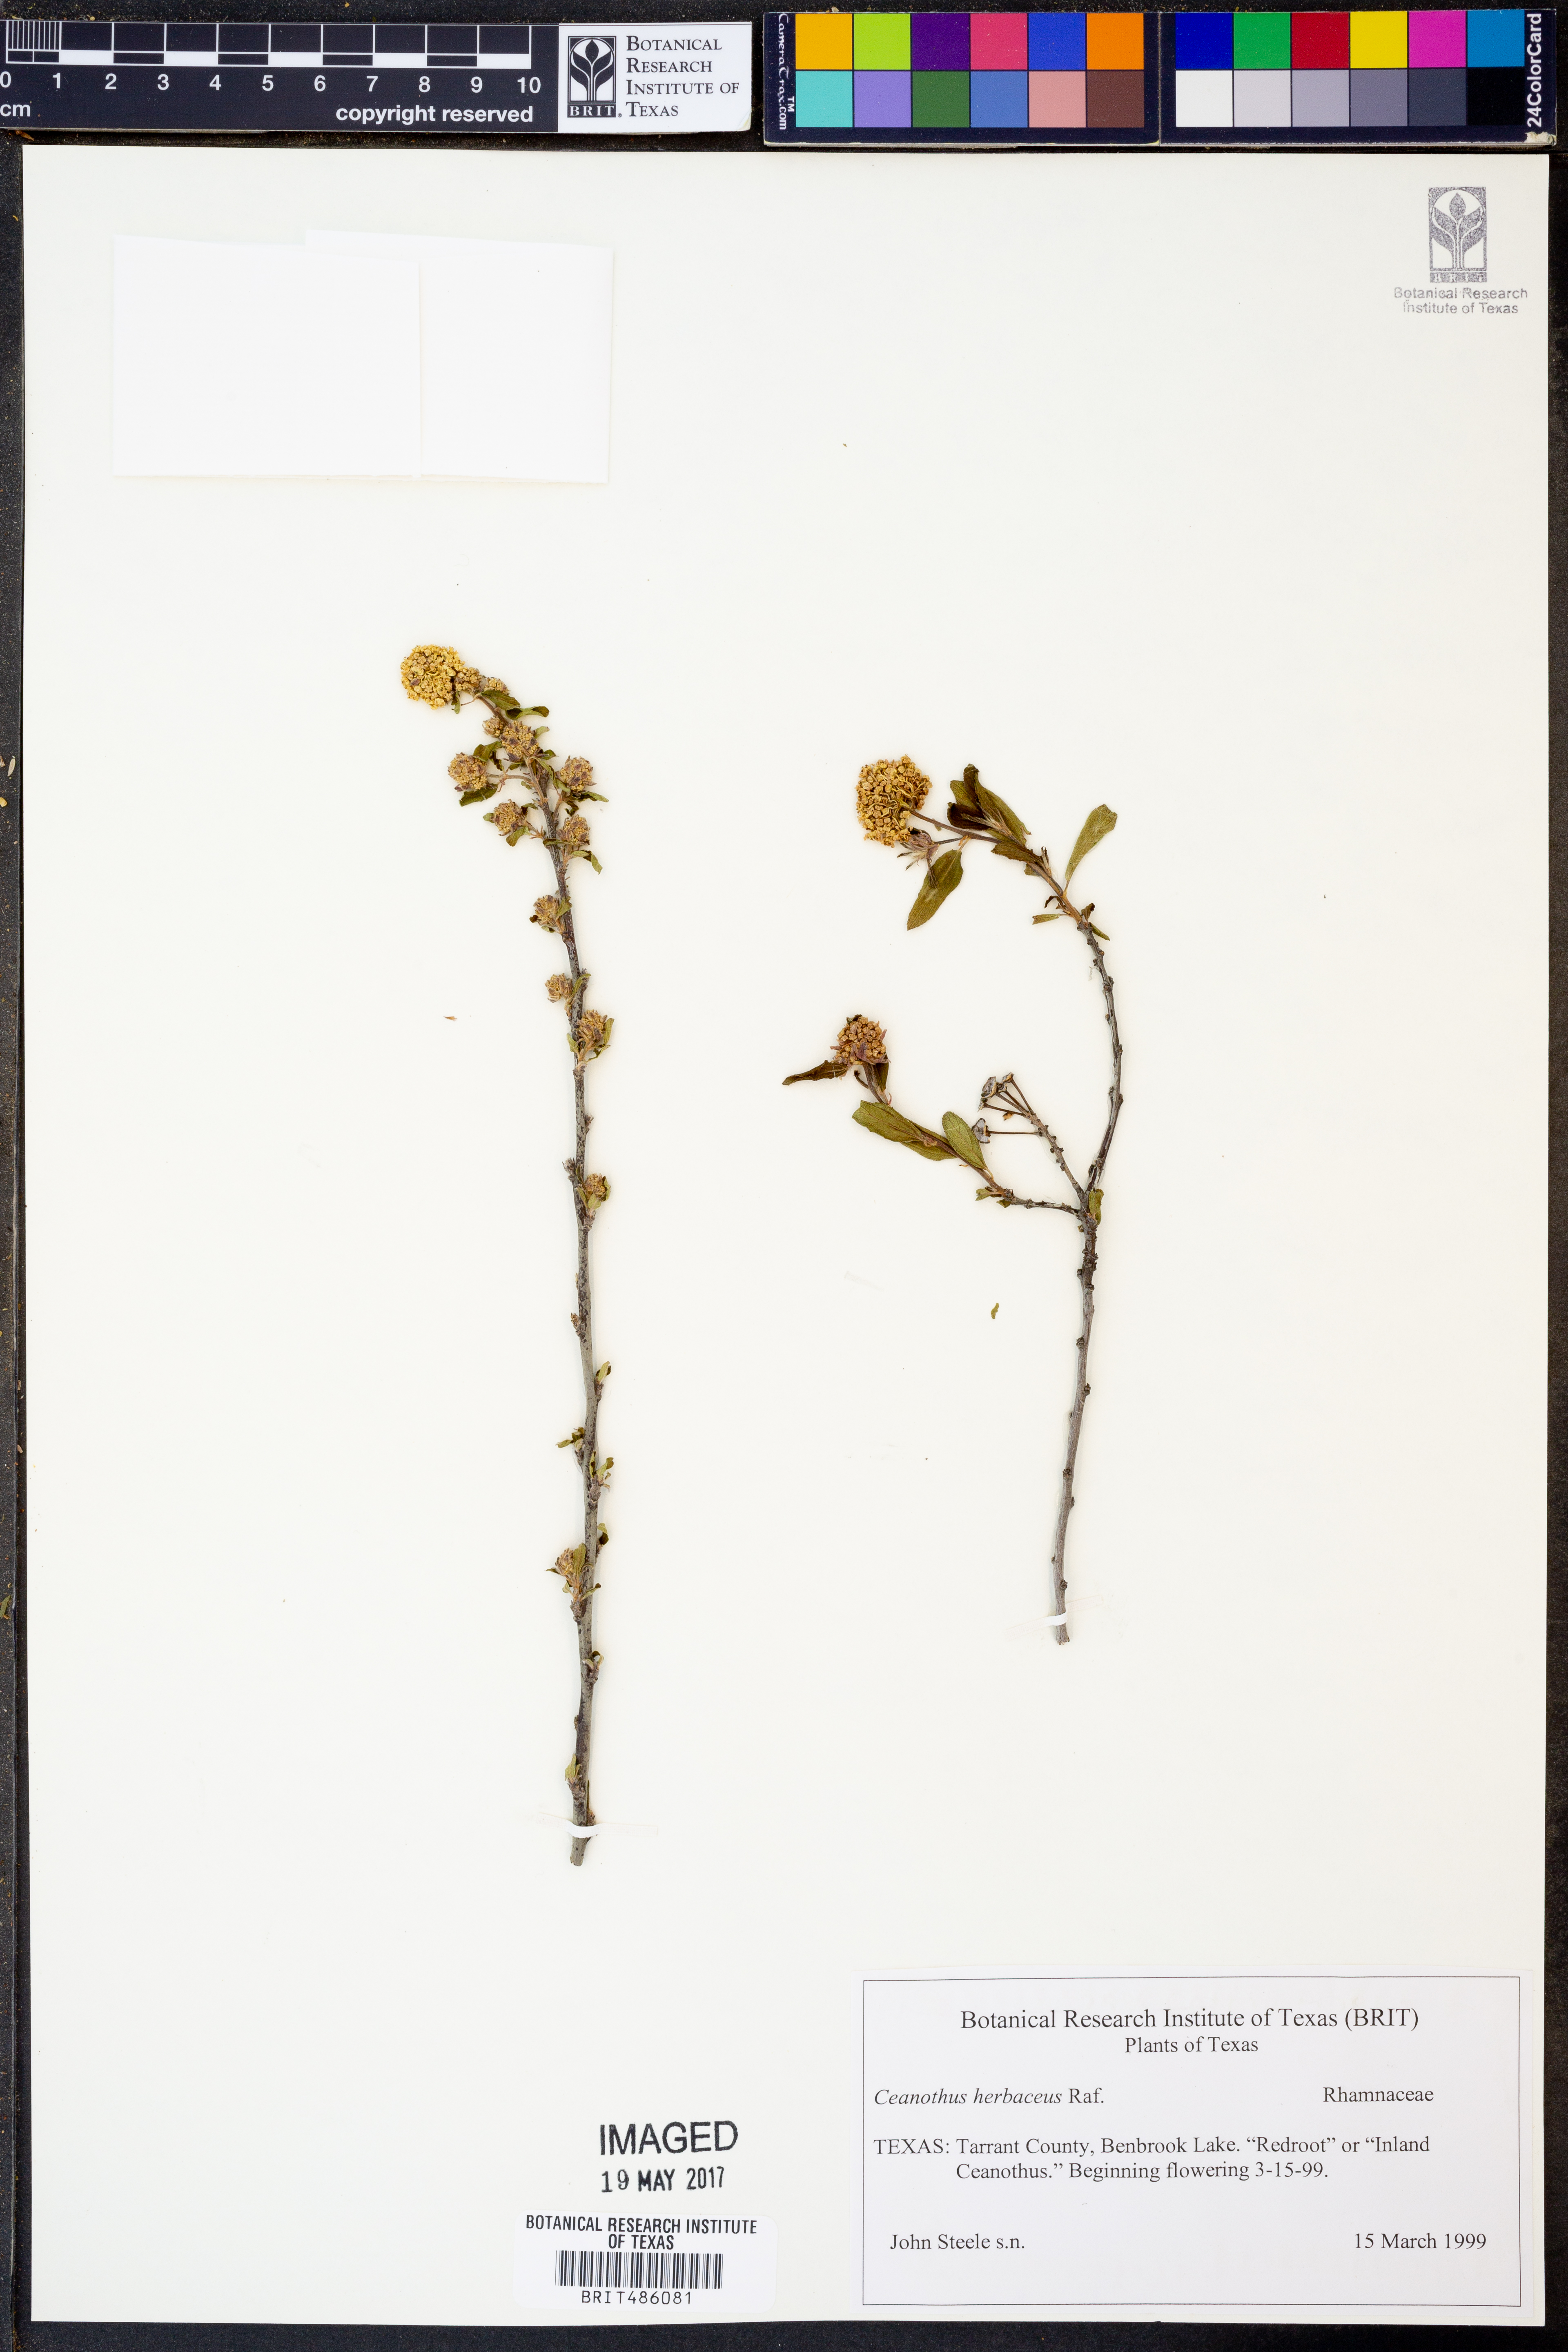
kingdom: Plantae
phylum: Tracheophyta
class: Magnoliopsida
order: Rosales
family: Rhamnaceae
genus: Ceanothus
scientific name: Ceanothus herbaceus
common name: Inland ceanothus
